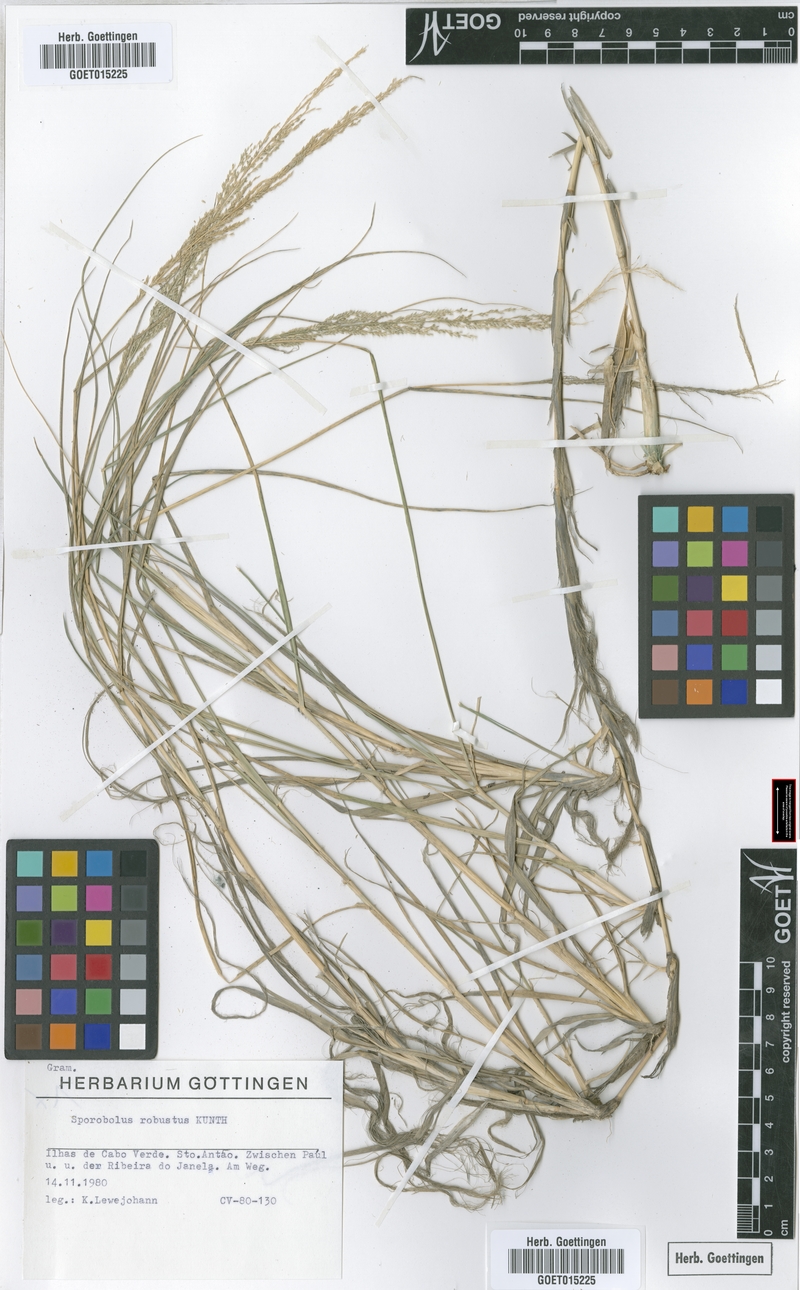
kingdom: Plantae
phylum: Tracheophyta
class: Liliopsida
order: Poales
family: Poaceae
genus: Sporobolus
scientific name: Sporobolus robustus
